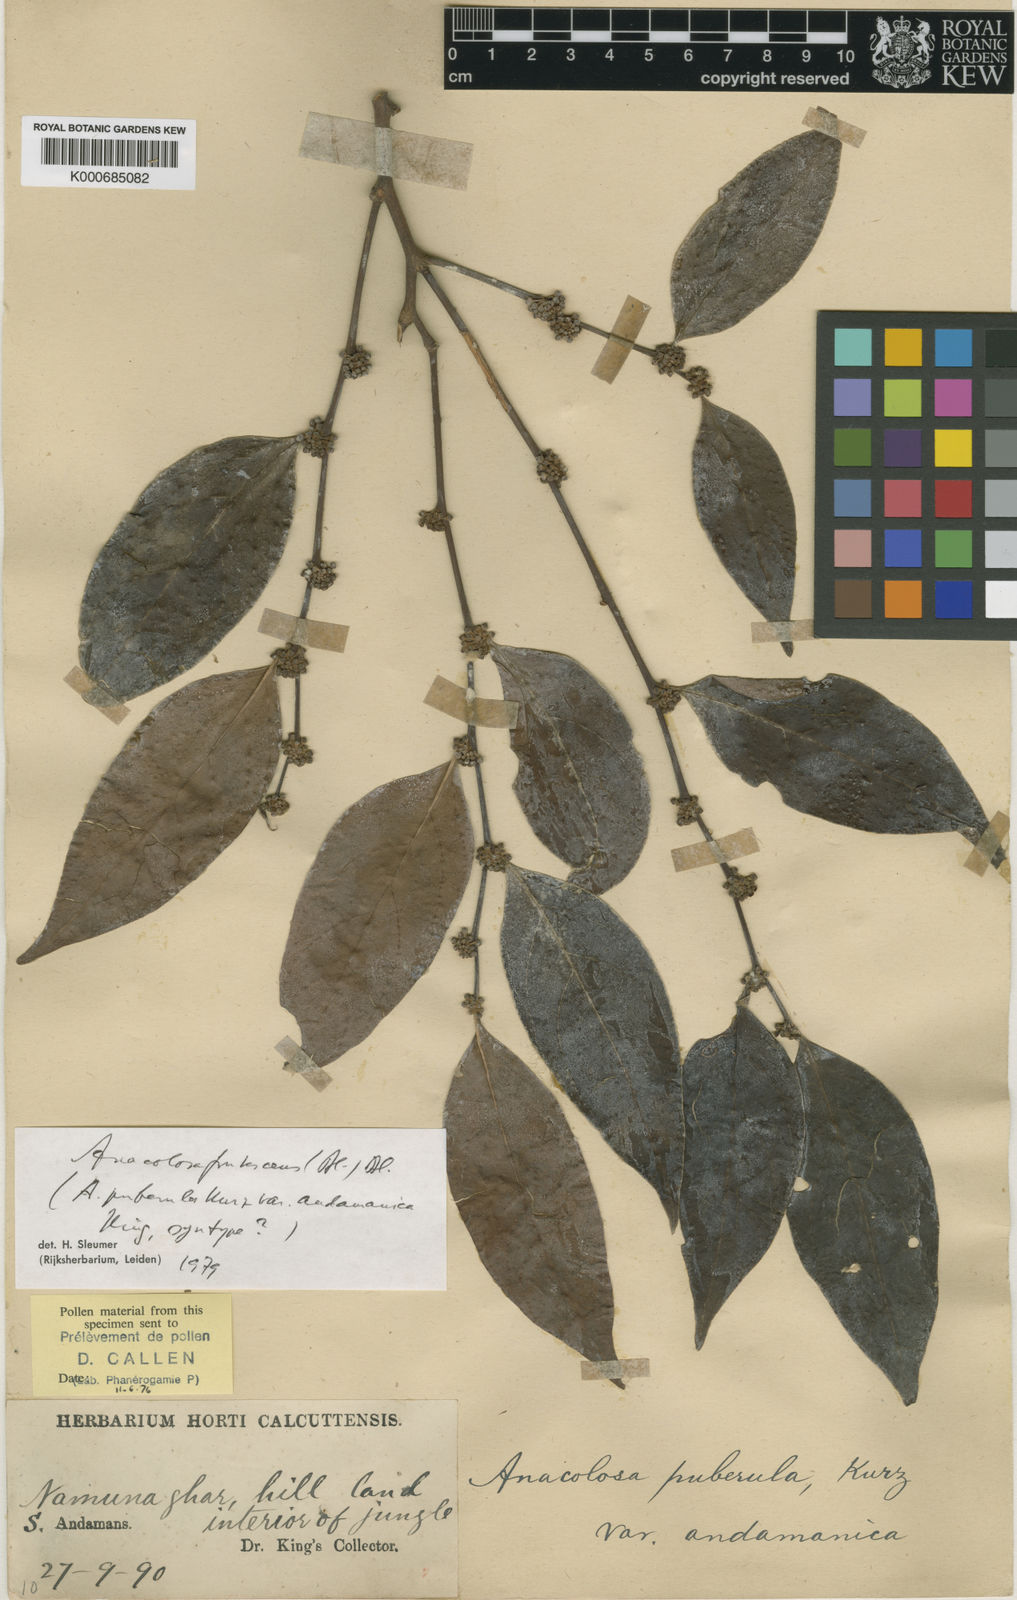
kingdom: Plantae
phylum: Tracheophyta
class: Magnoliopsida
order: Santalales
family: Aptandraceae
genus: Anacolosa
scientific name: Anacolosa frutescens
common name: Galo nut
